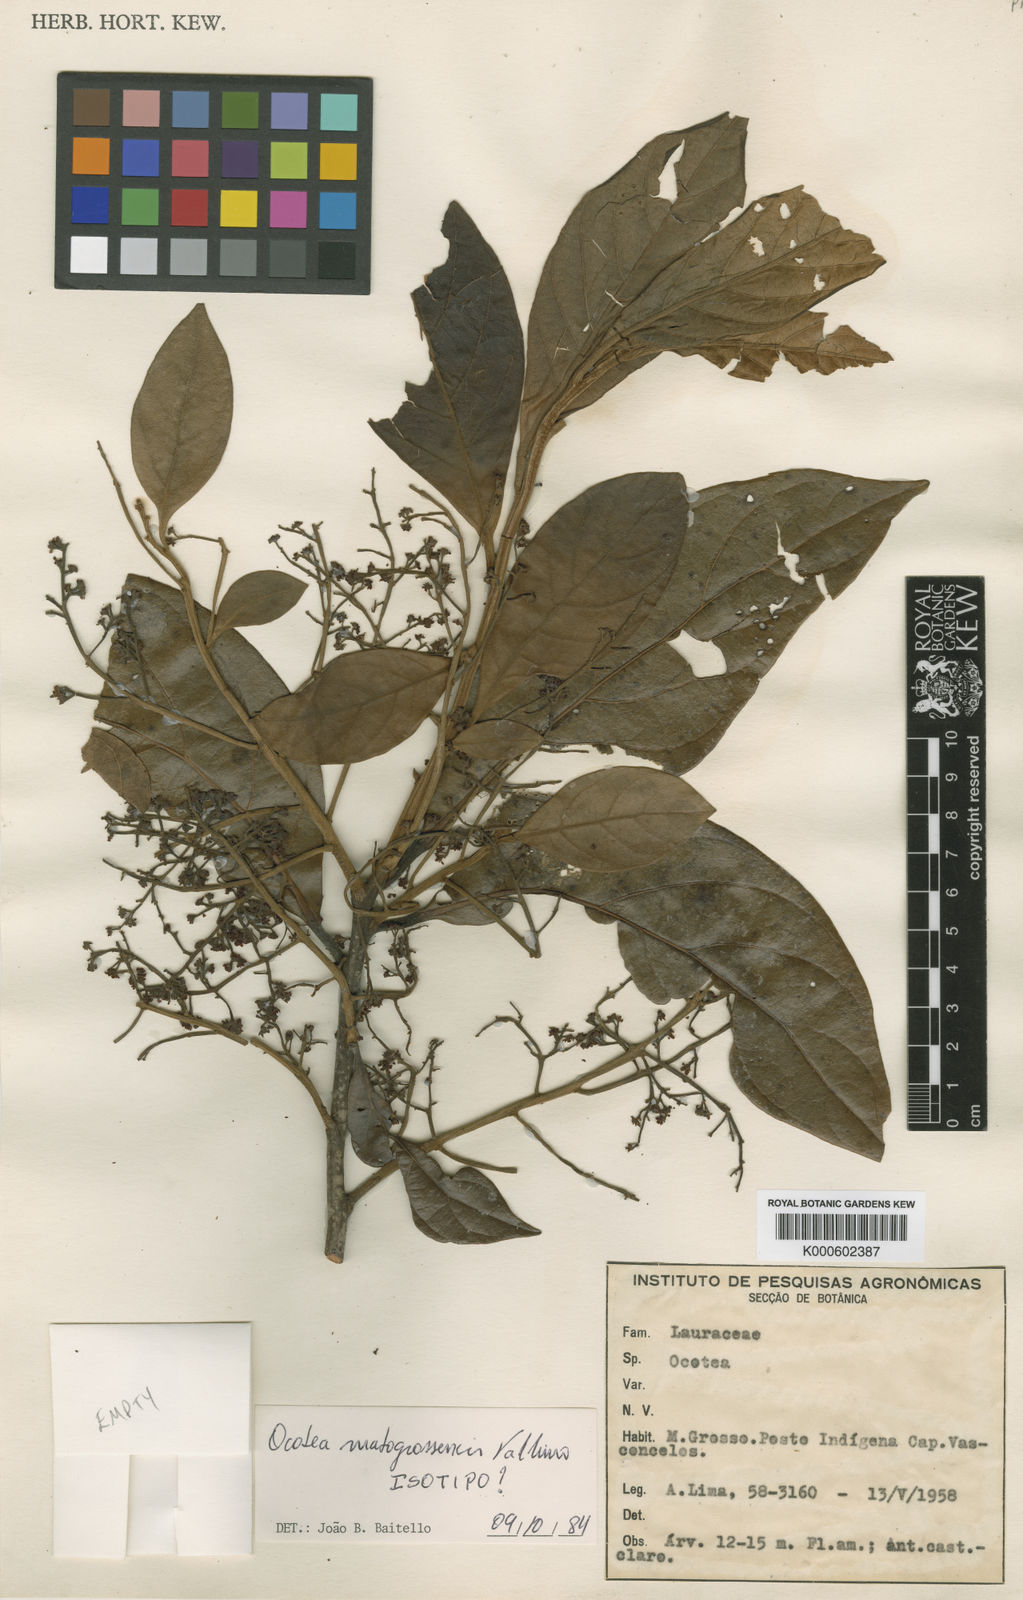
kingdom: Plantae
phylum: Tracheophyta
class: Magnoliopsida
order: Laurales
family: Lauraceae
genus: Ocotea
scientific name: Ocotea matogrossensis
